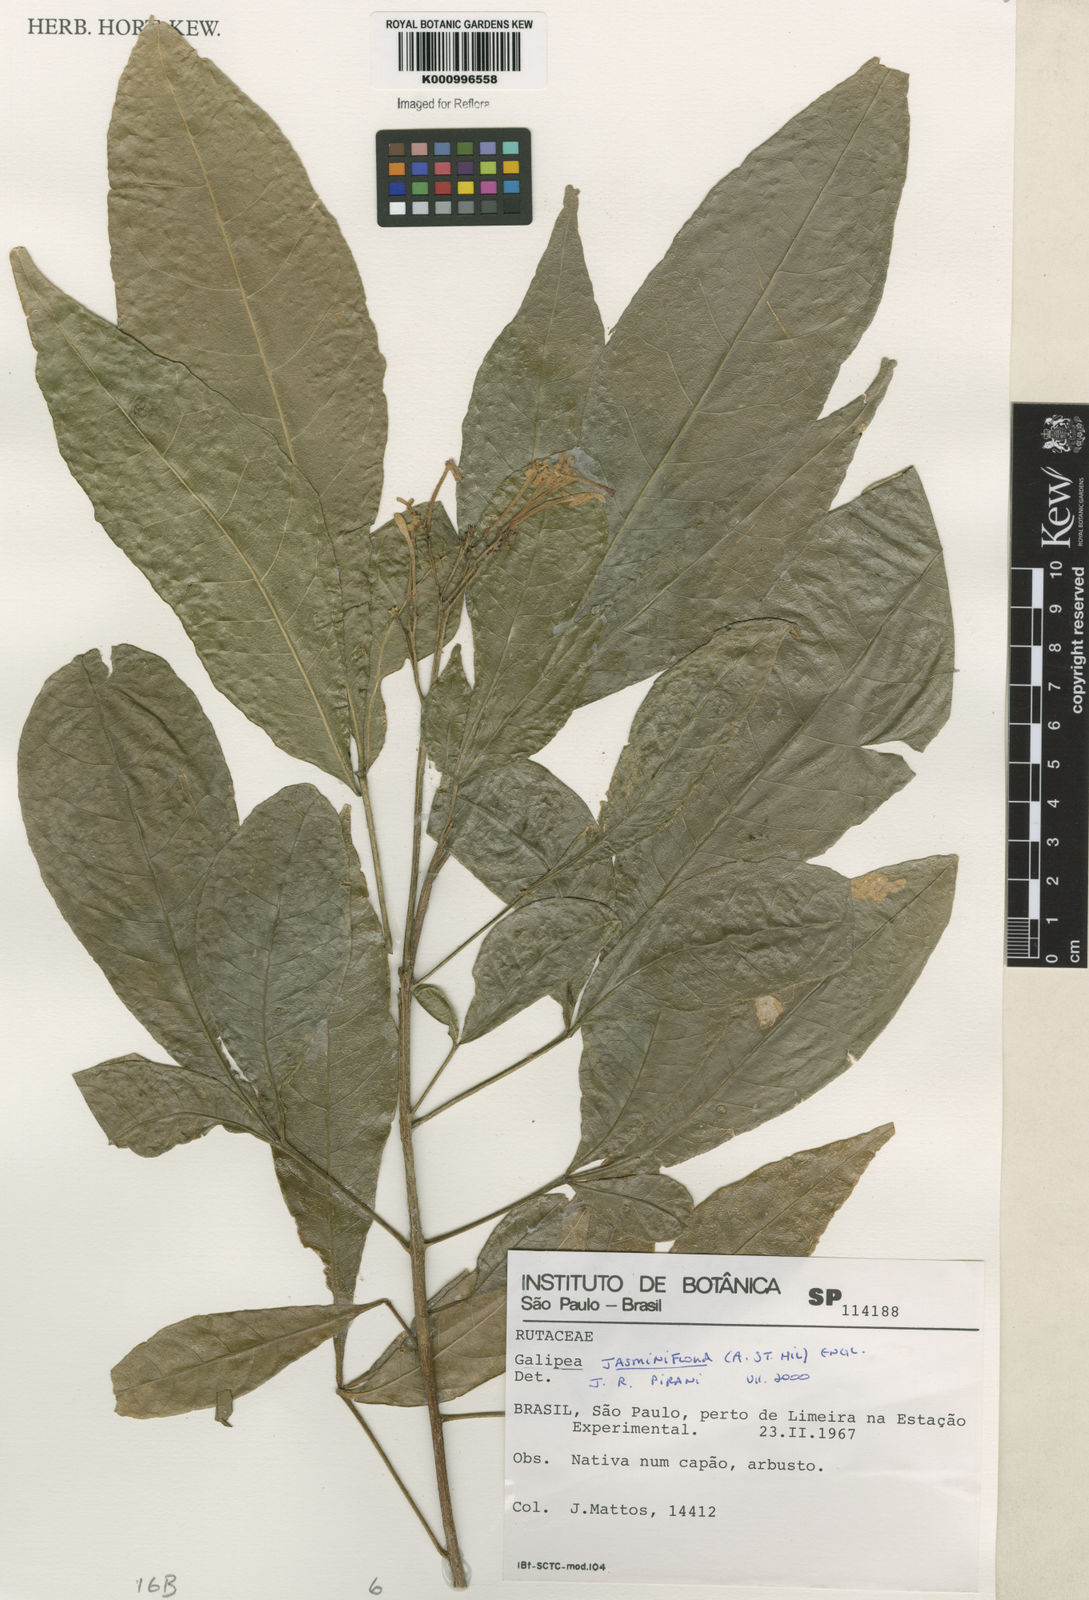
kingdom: Plantae
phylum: Tracheophyta
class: Magnoliopsida
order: Sapindales
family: Rutaceae
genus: Galipea
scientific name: Galipea
